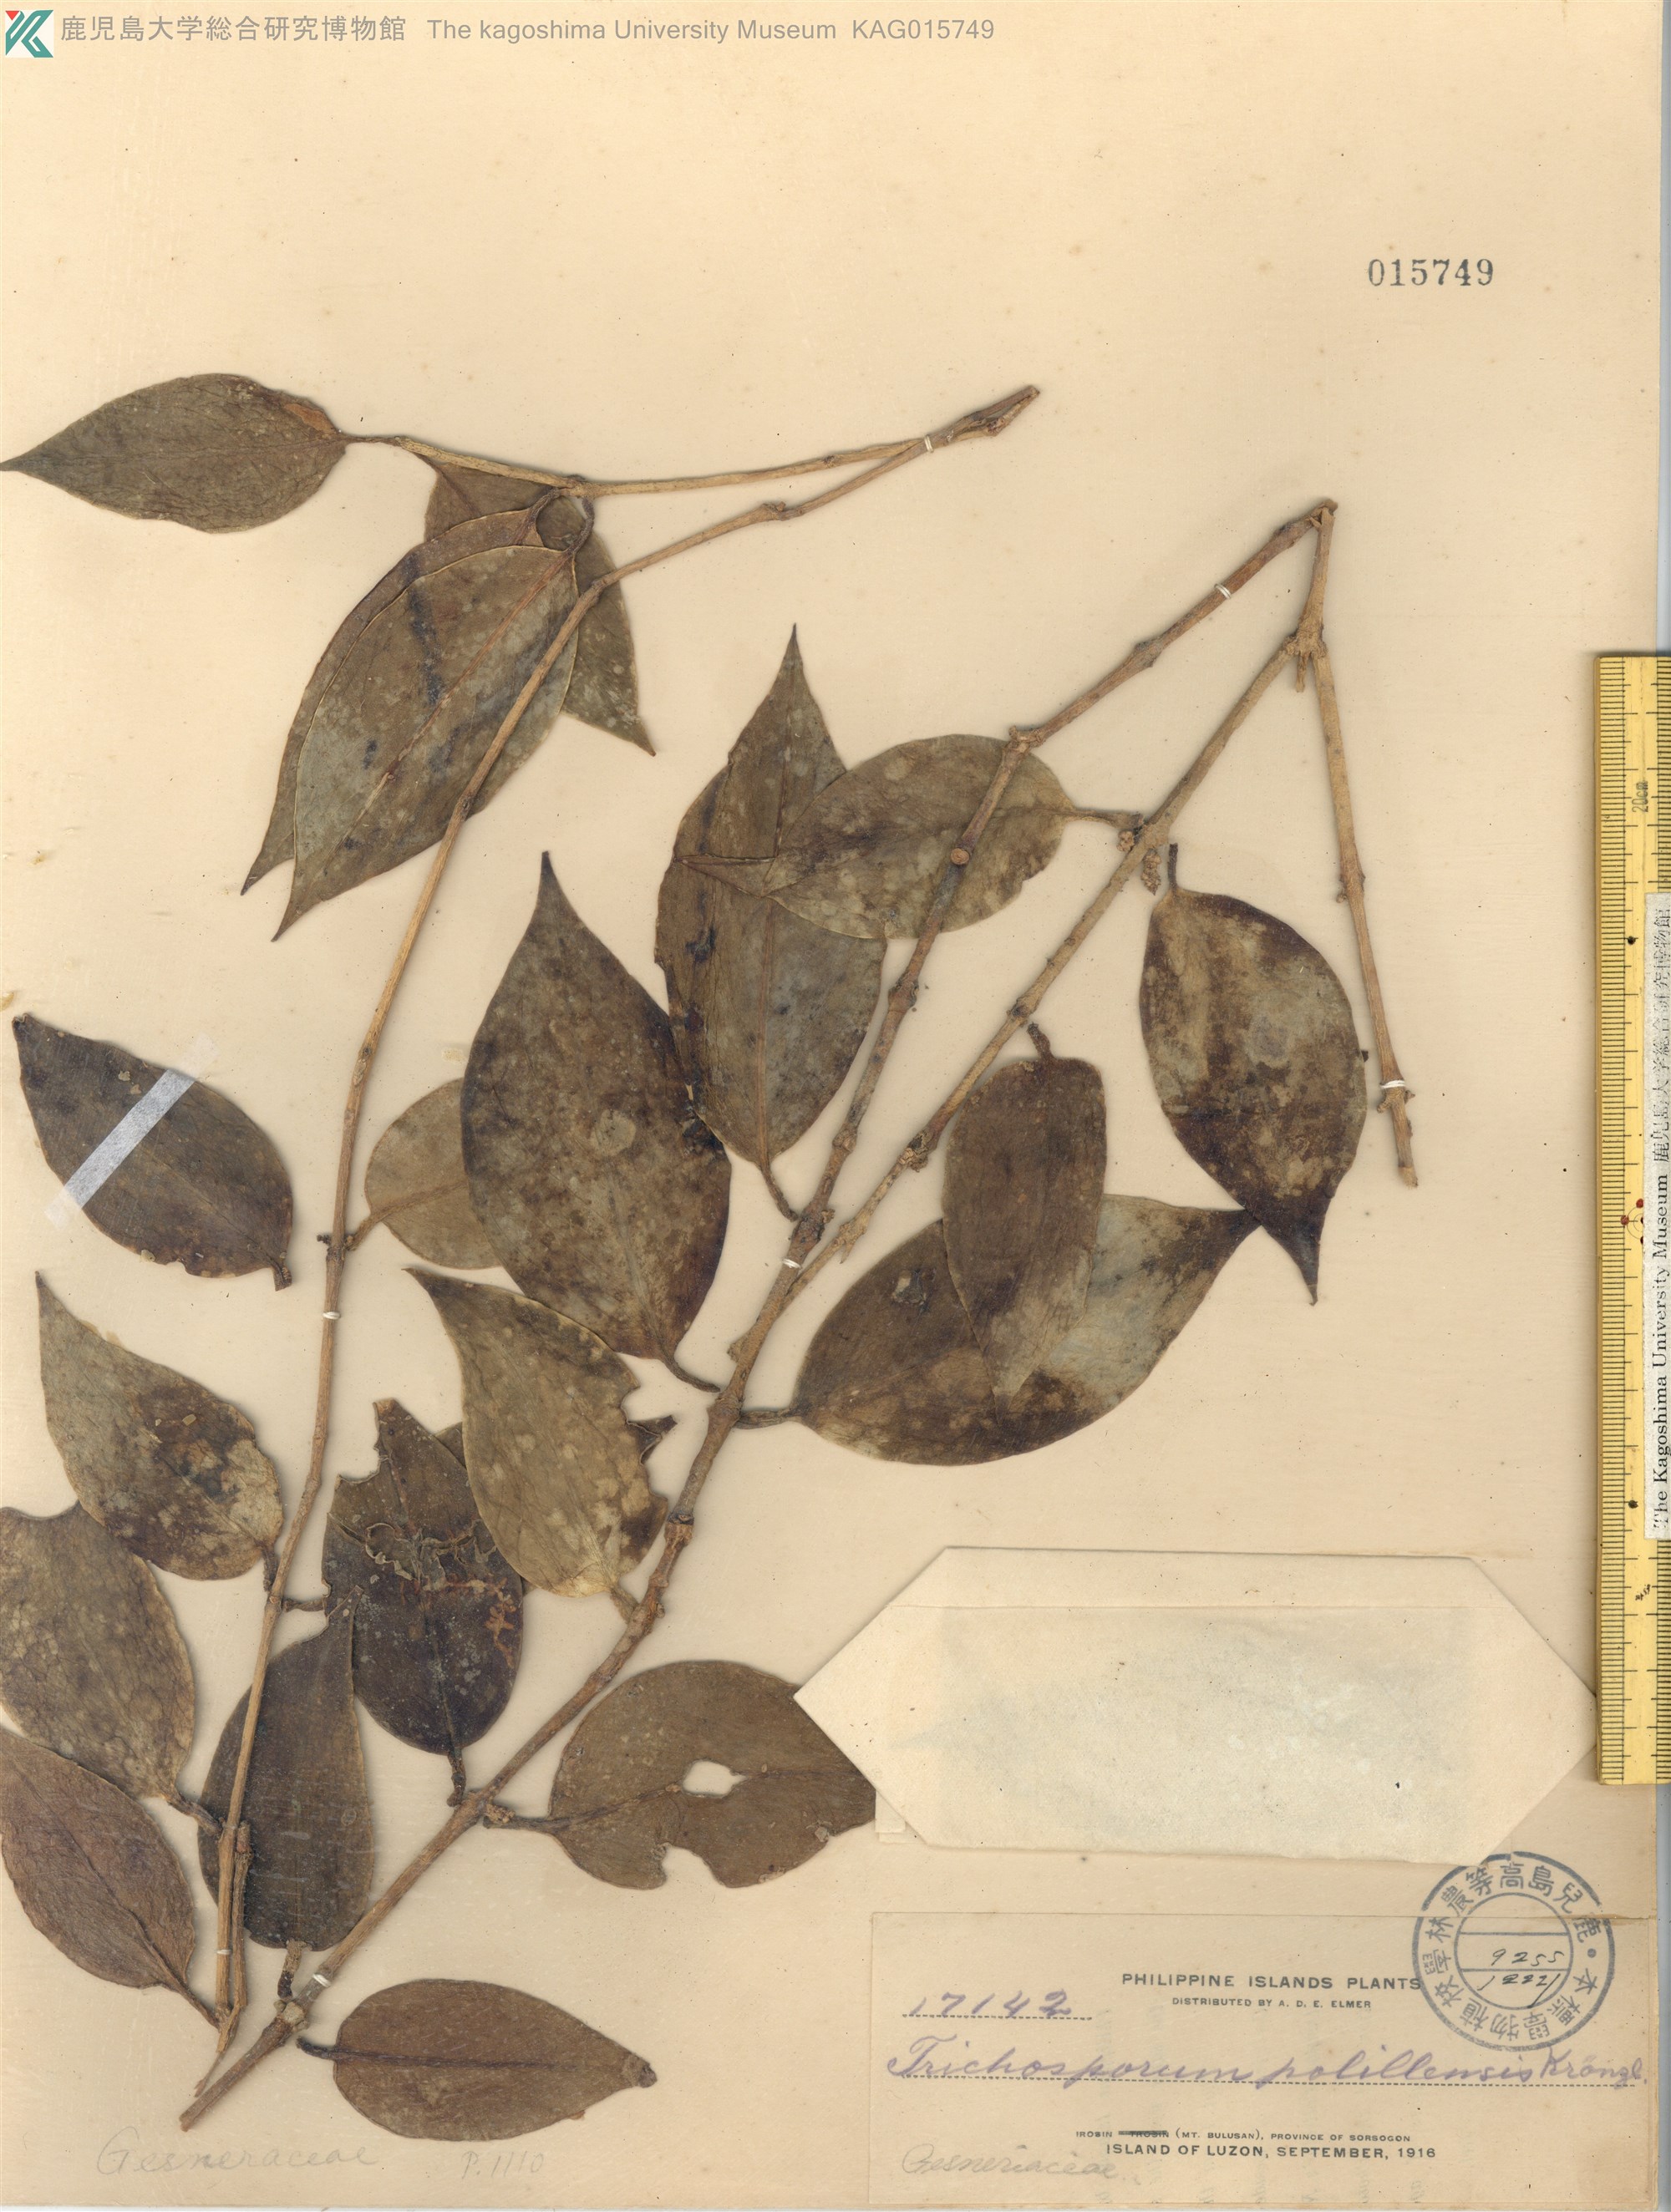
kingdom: Plantae
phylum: Tracheophyta
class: Magnoliopsida
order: Malvales
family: Malvaceae
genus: Trichospermum
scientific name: Trichospermum
